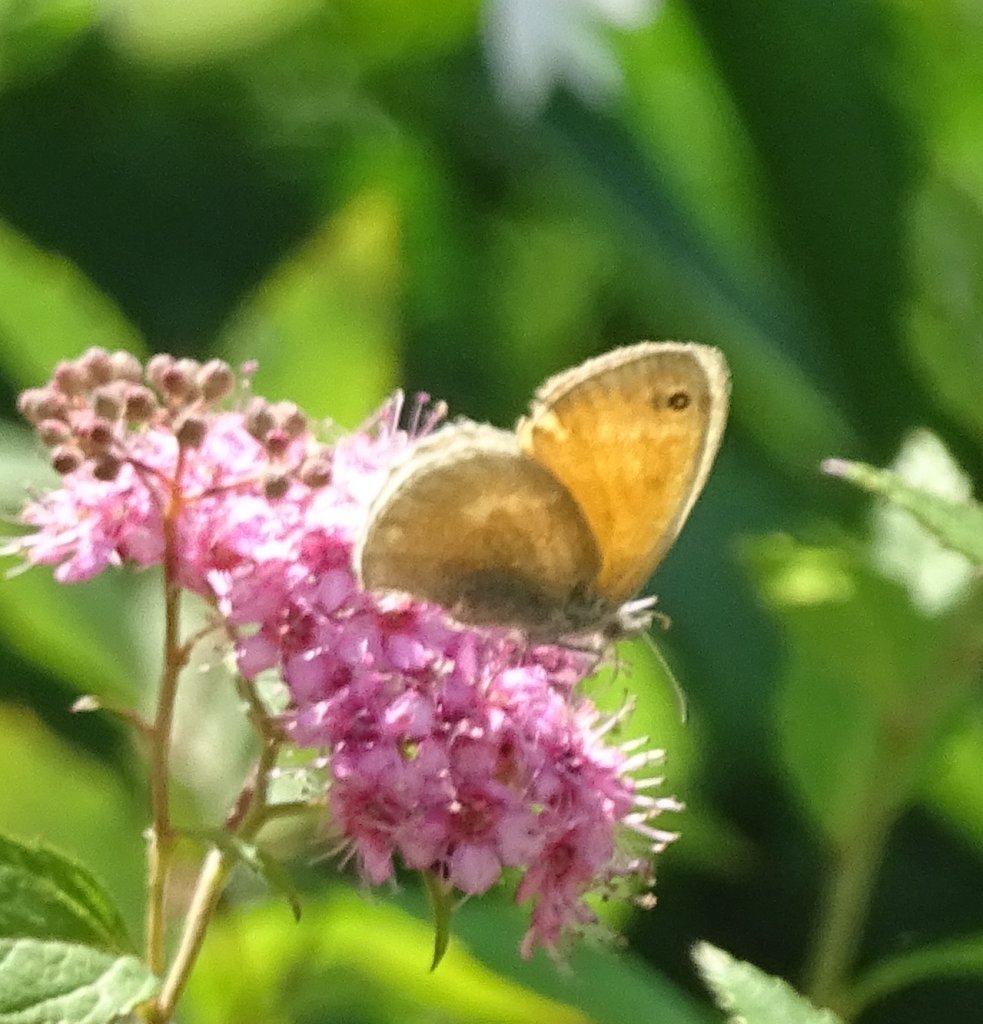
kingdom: Animalia
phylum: Arthropoda
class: Insecta
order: Lepidoptera
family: Nymphalidae
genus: Coenonympha
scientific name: Coenonympha tullia
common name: Large Heath
